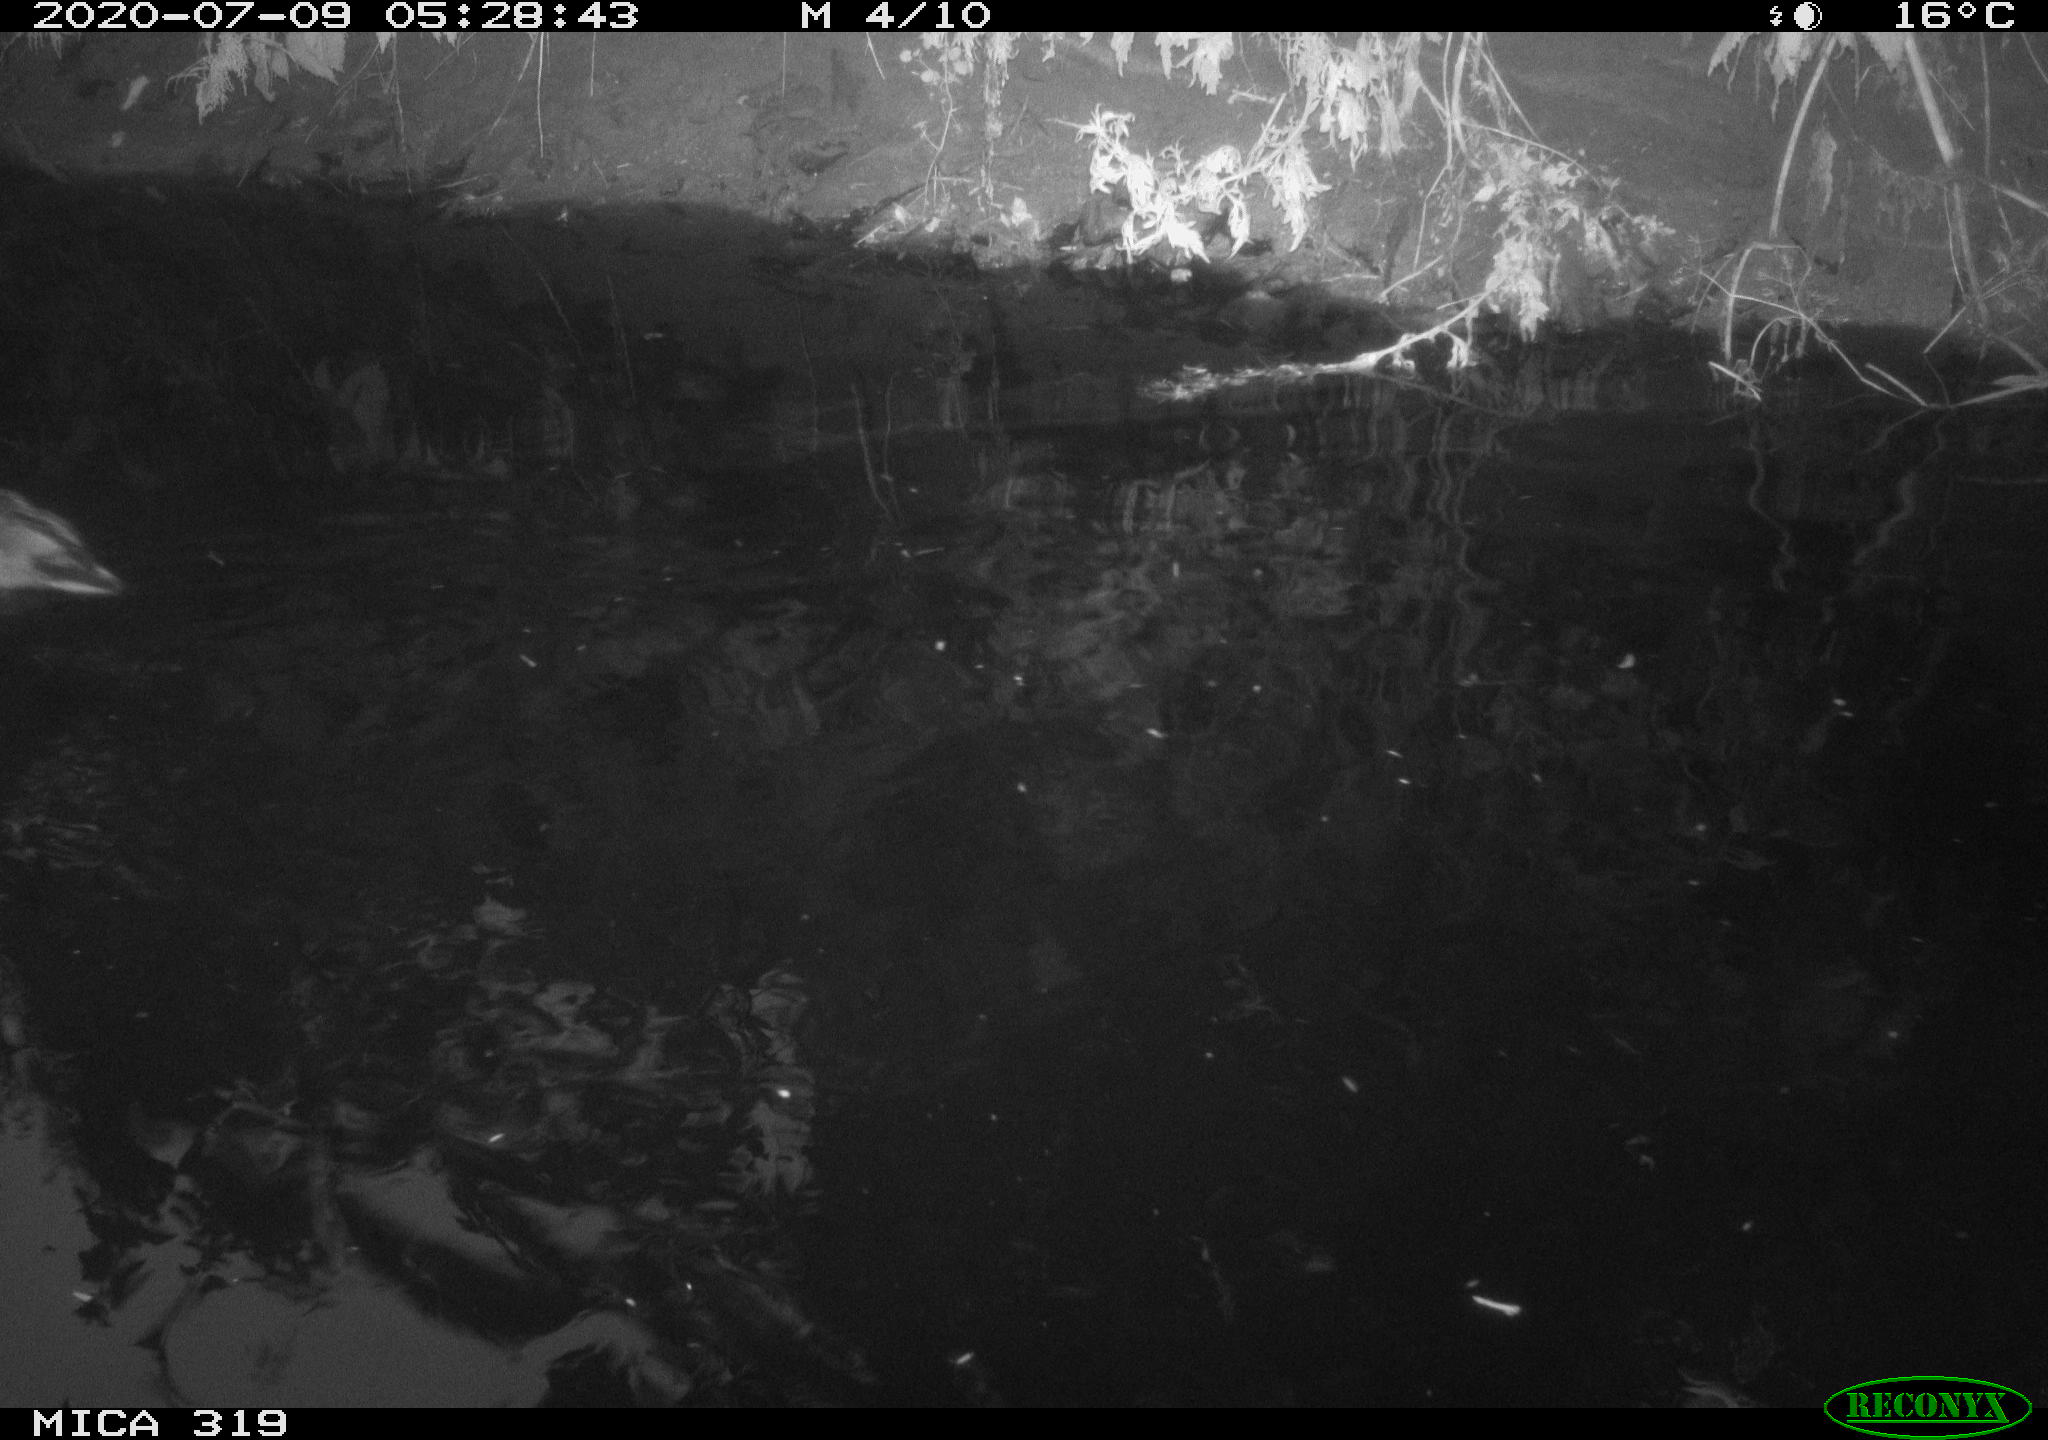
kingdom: Animalia
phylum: Chordata
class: Aves
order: Anseriformes
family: Anatidae
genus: Anas
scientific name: Anas platyrhynchos
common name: Mallard
